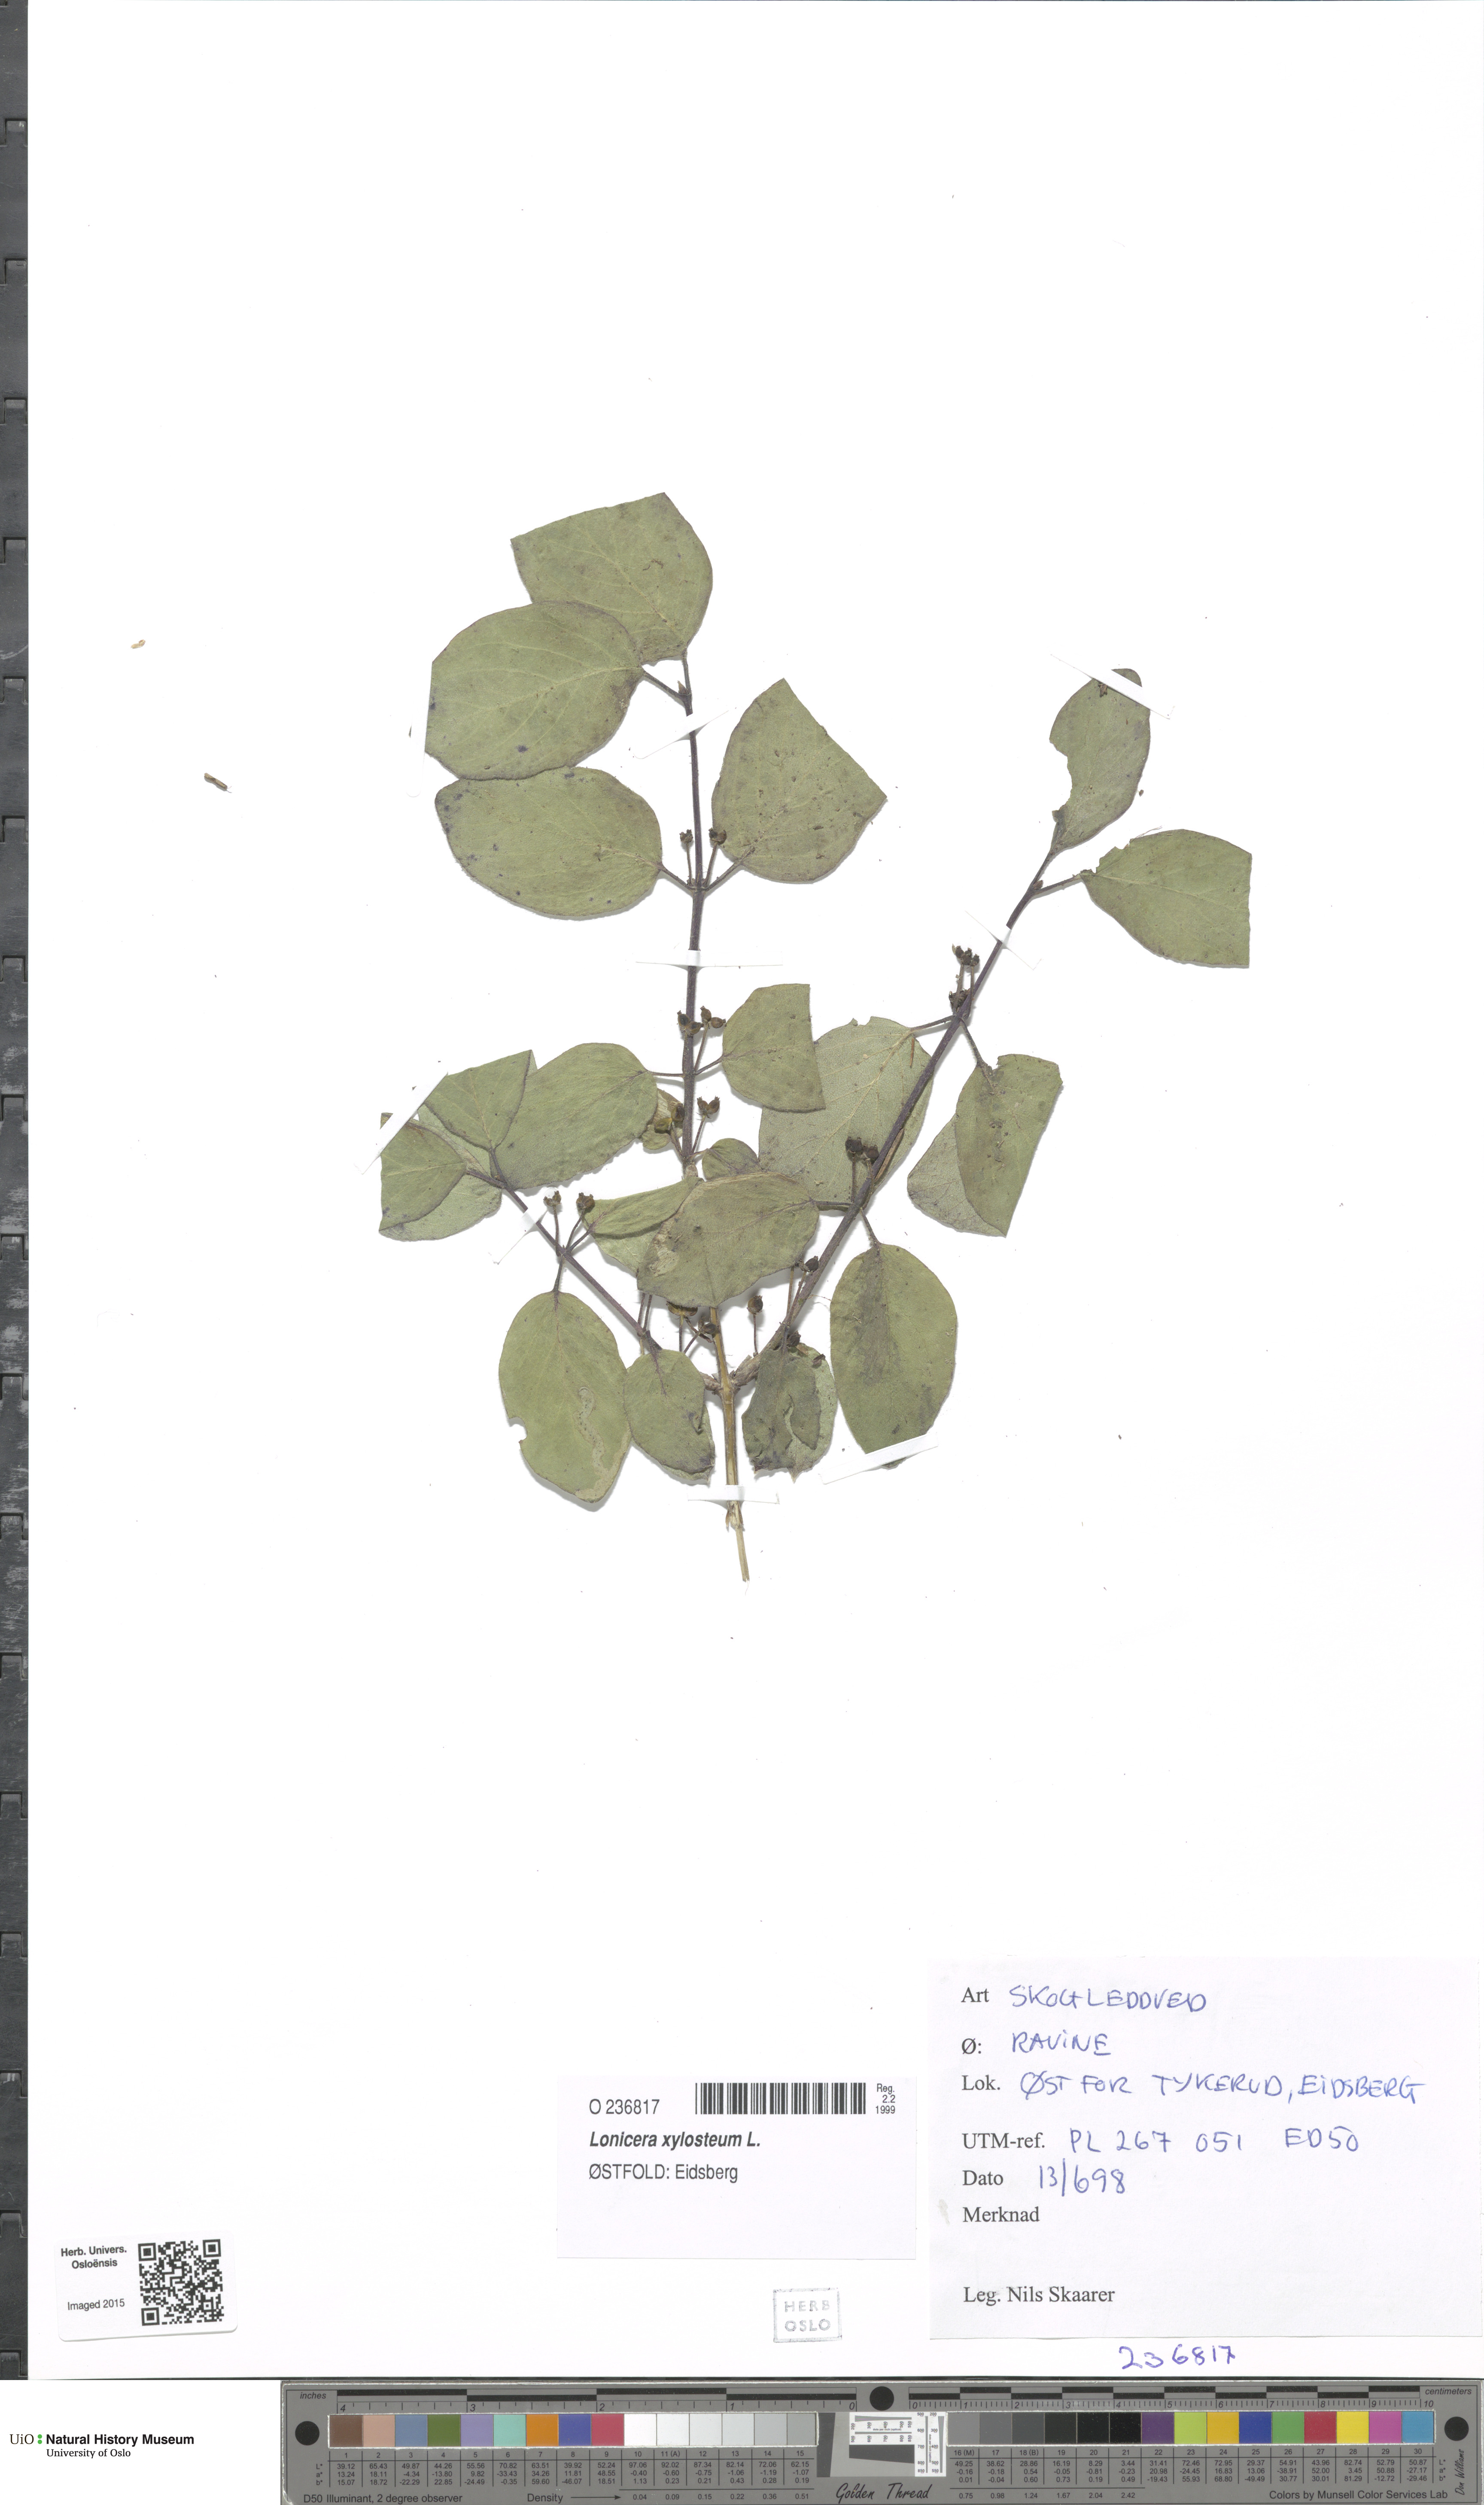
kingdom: Plantae
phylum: Tracheophyta
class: Magnoliopsida
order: Dipsacales
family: Caprifoliaceae
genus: Lonicera
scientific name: Lonicera xylosteum
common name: Fly honeysuckle
